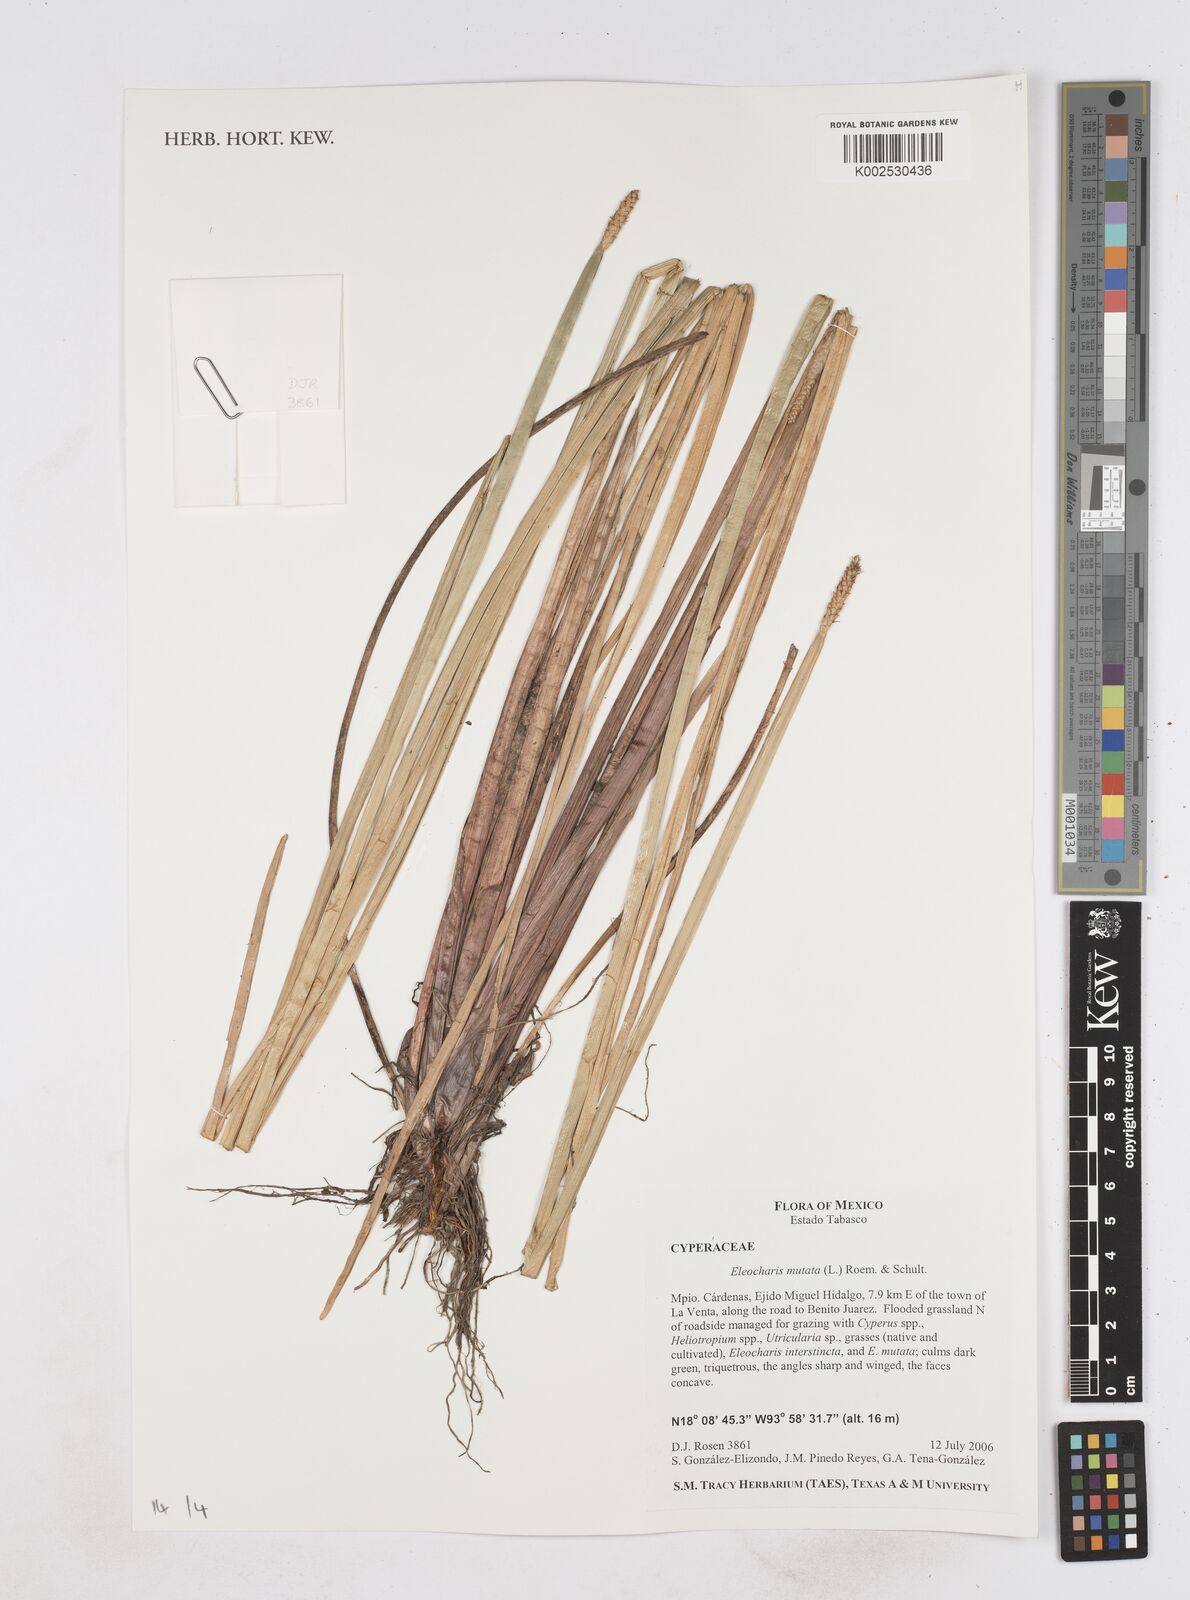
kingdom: Plantae
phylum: Tracheophyta
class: Liliopsida
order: Poales
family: Cyperaceae
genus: Eleocharis
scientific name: Eleocharis mutata
